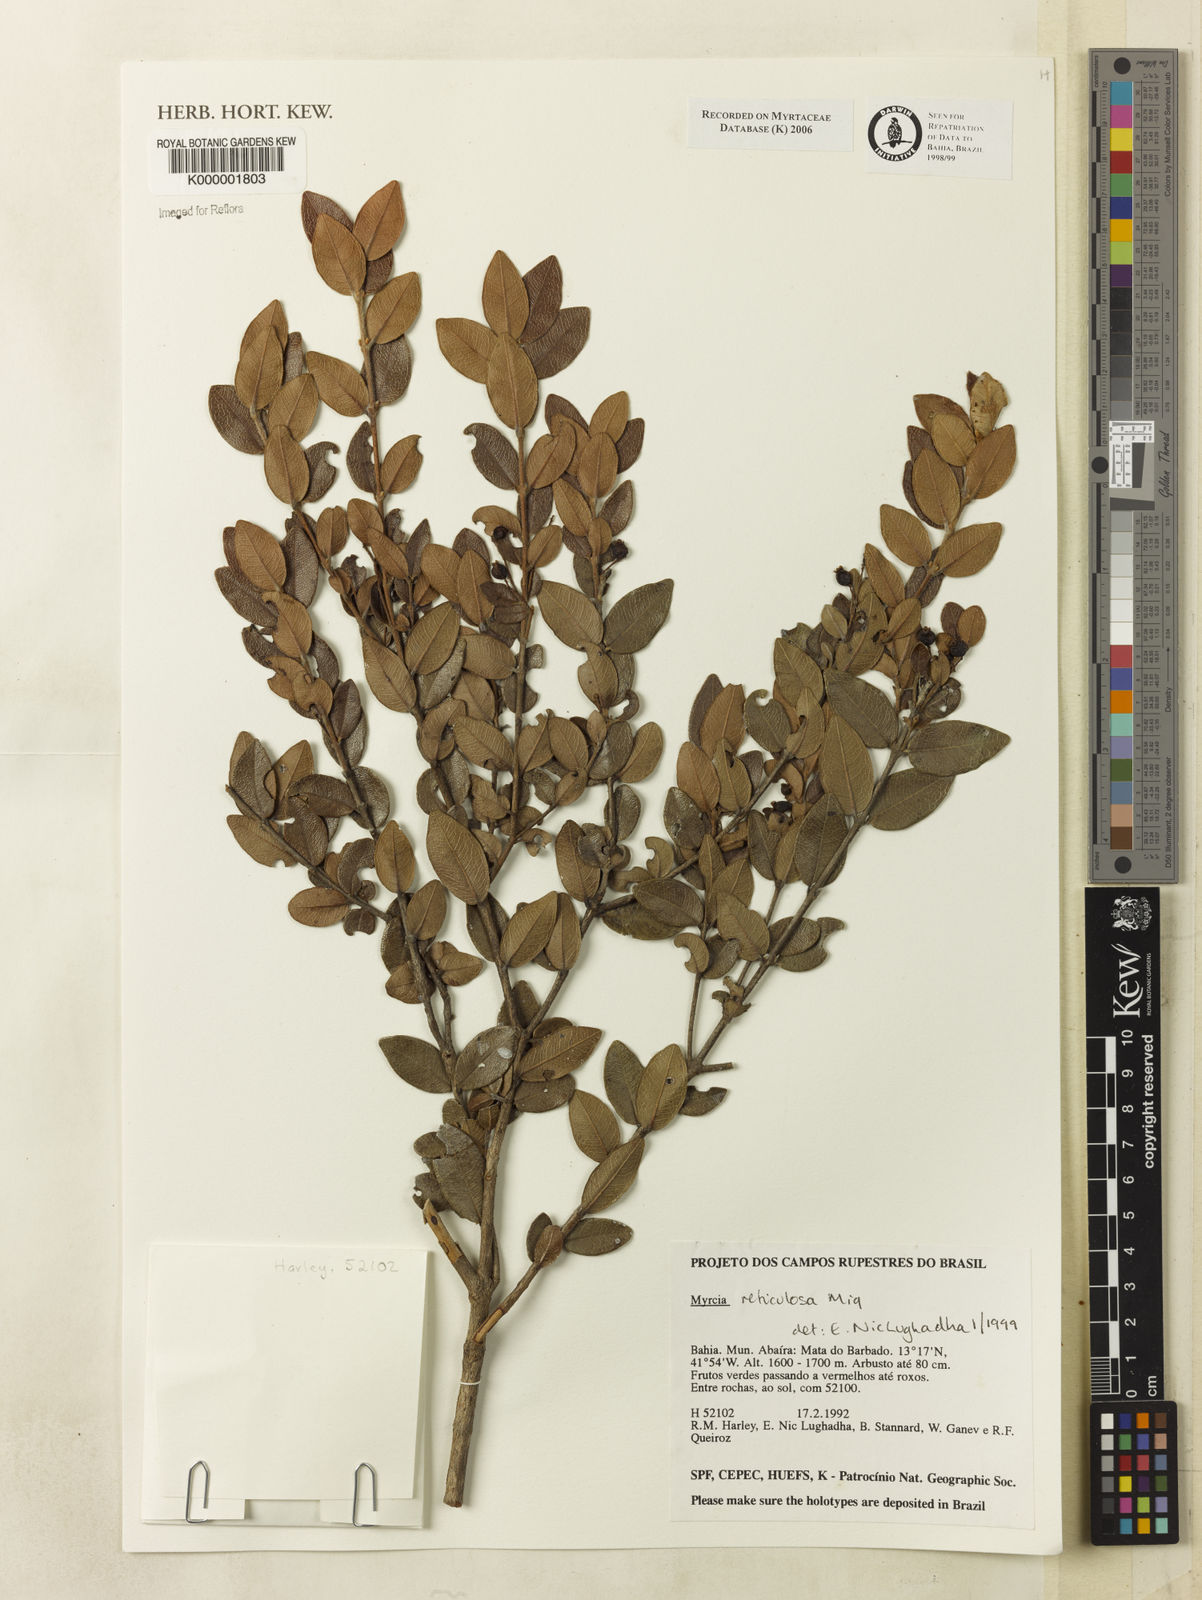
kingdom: Plantae
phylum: Tracheophyta
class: Magnoliopsida
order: Myrtales
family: Myrtaceae
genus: Myrcia
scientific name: Myrcia reticulosa
